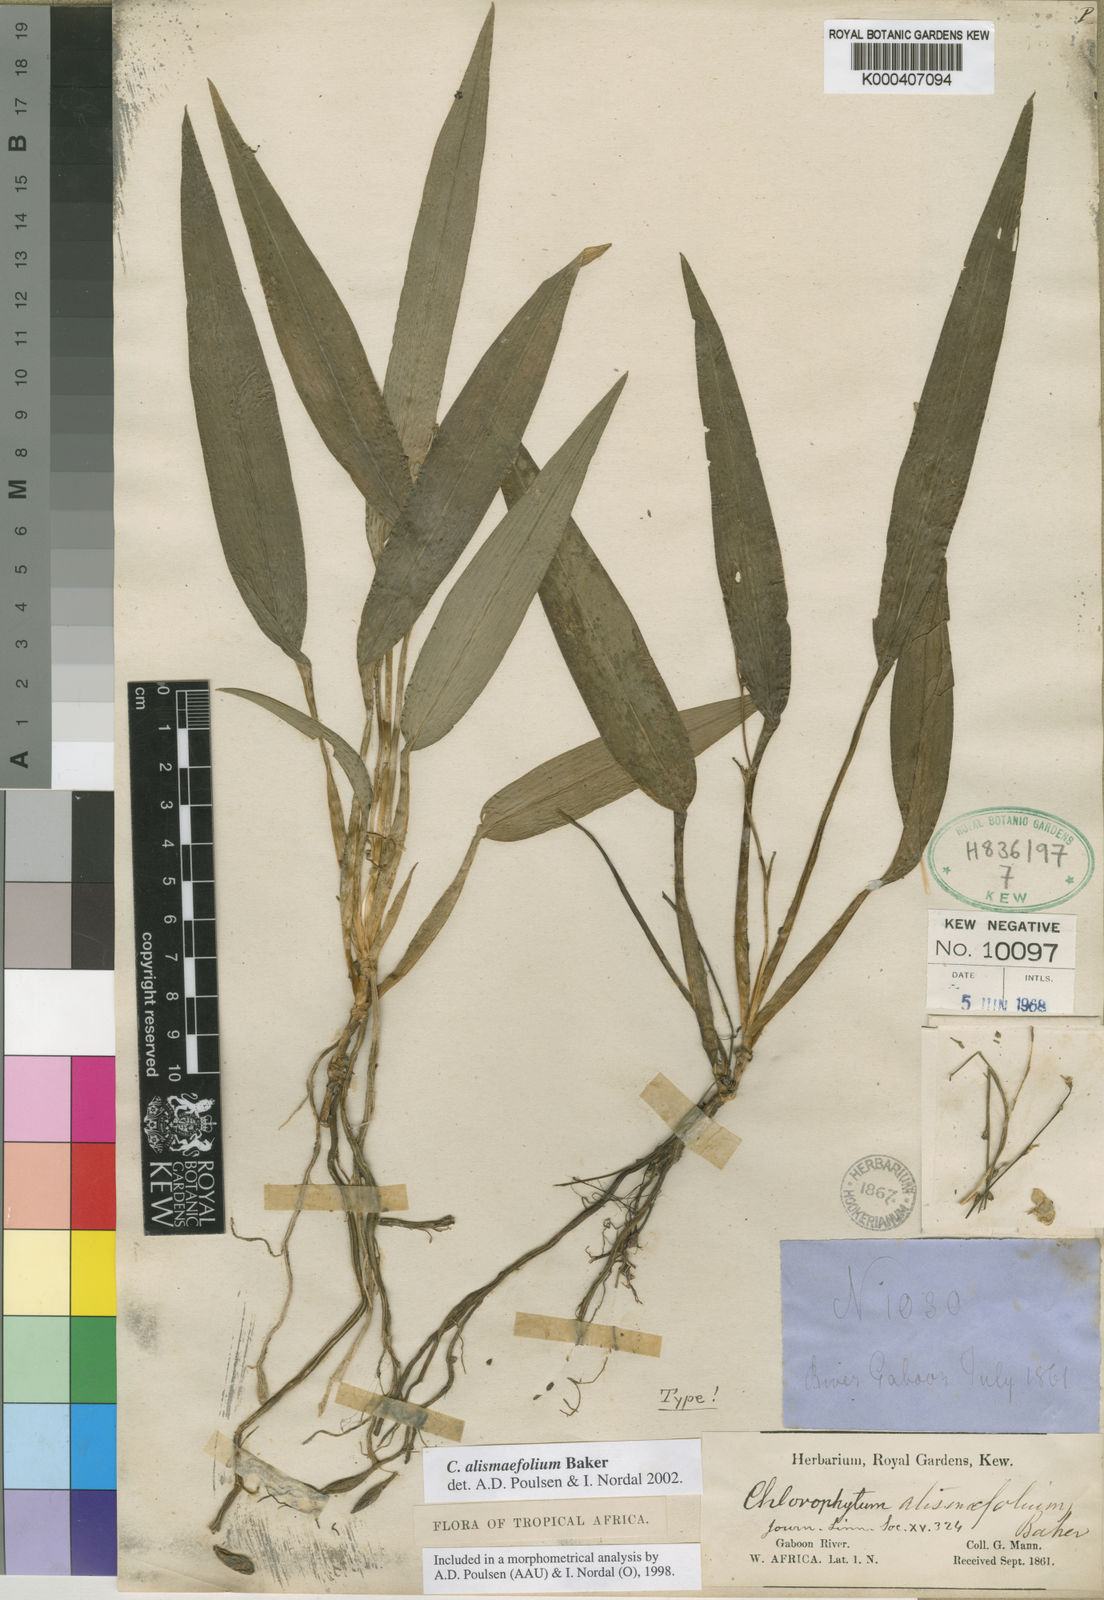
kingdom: Plantae
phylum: Tracheophyta
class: Liliopsida
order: Asparagales
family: Asparagaceae
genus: Chlorophytum
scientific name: Chlorophytum alismifolium
